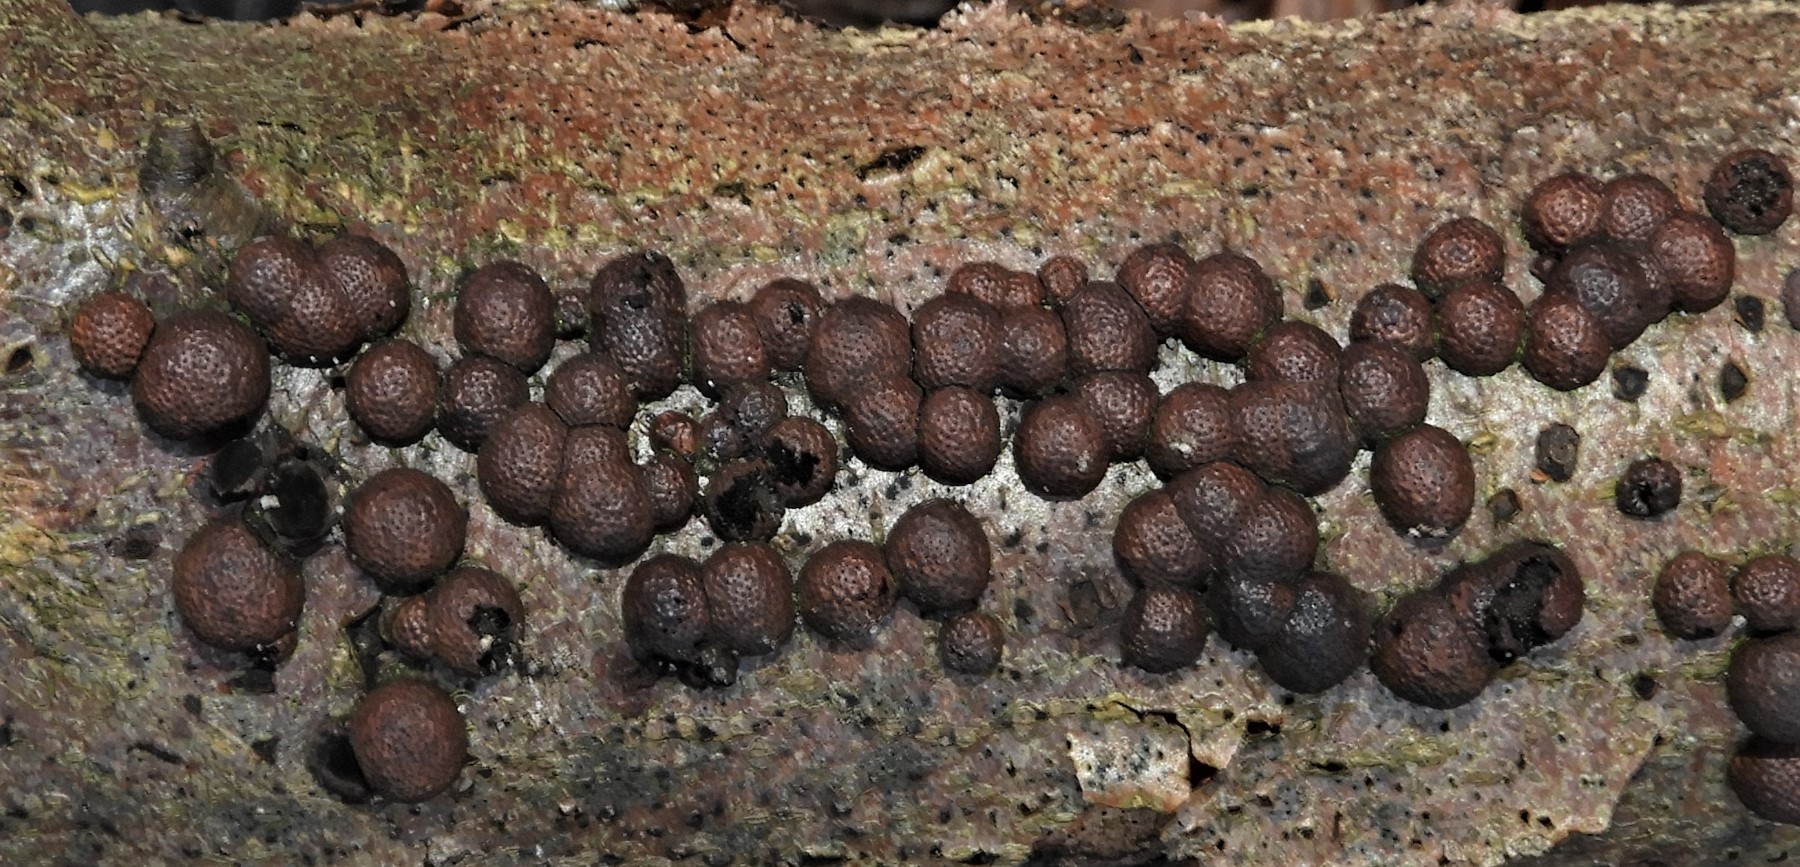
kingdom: Fungi
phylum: Ascomycota
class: Sordariomycetes
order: Xylariales
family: Hypoxylaceae
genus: Hypoxylon
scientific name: Hypoxylon fragiforme
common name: kuljordbær
